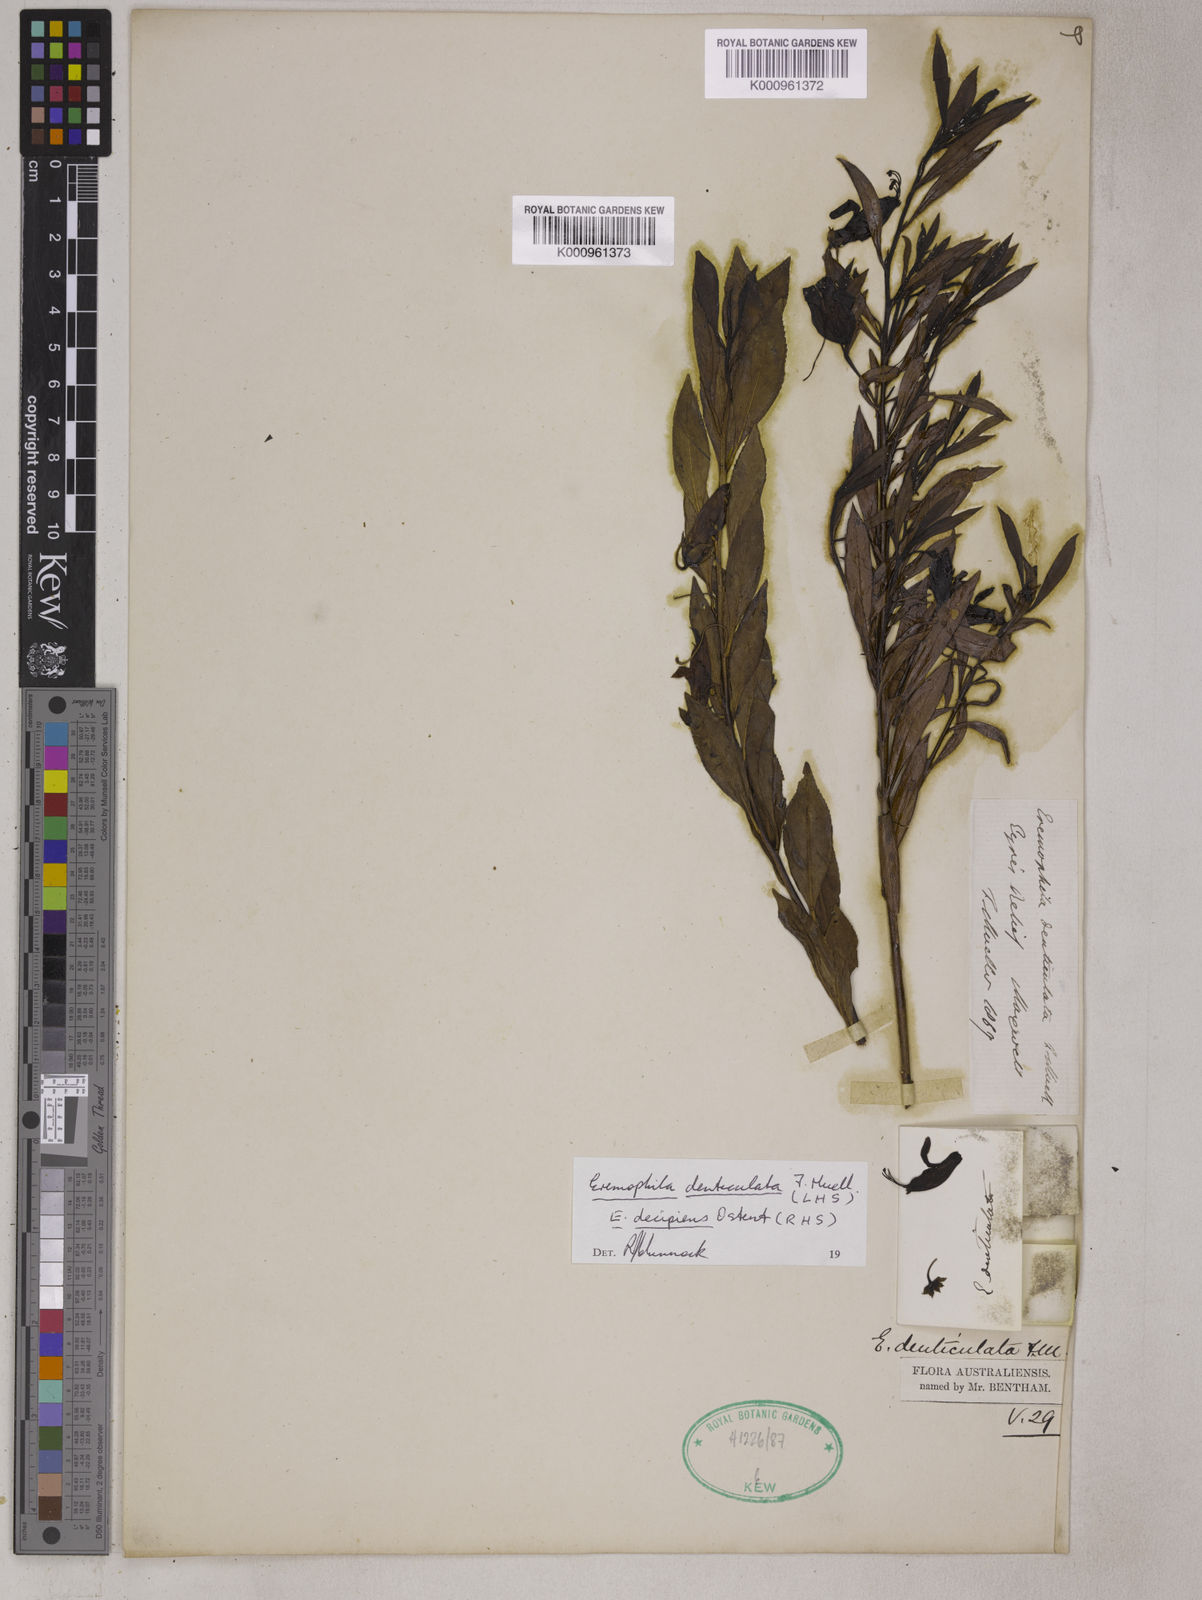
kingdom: Plantae
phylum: Tracheophyta
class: Magnoliopsida
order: Lamiales
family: Scrophulariaceae
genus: Eremophila
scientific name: Eremophila denticulata
